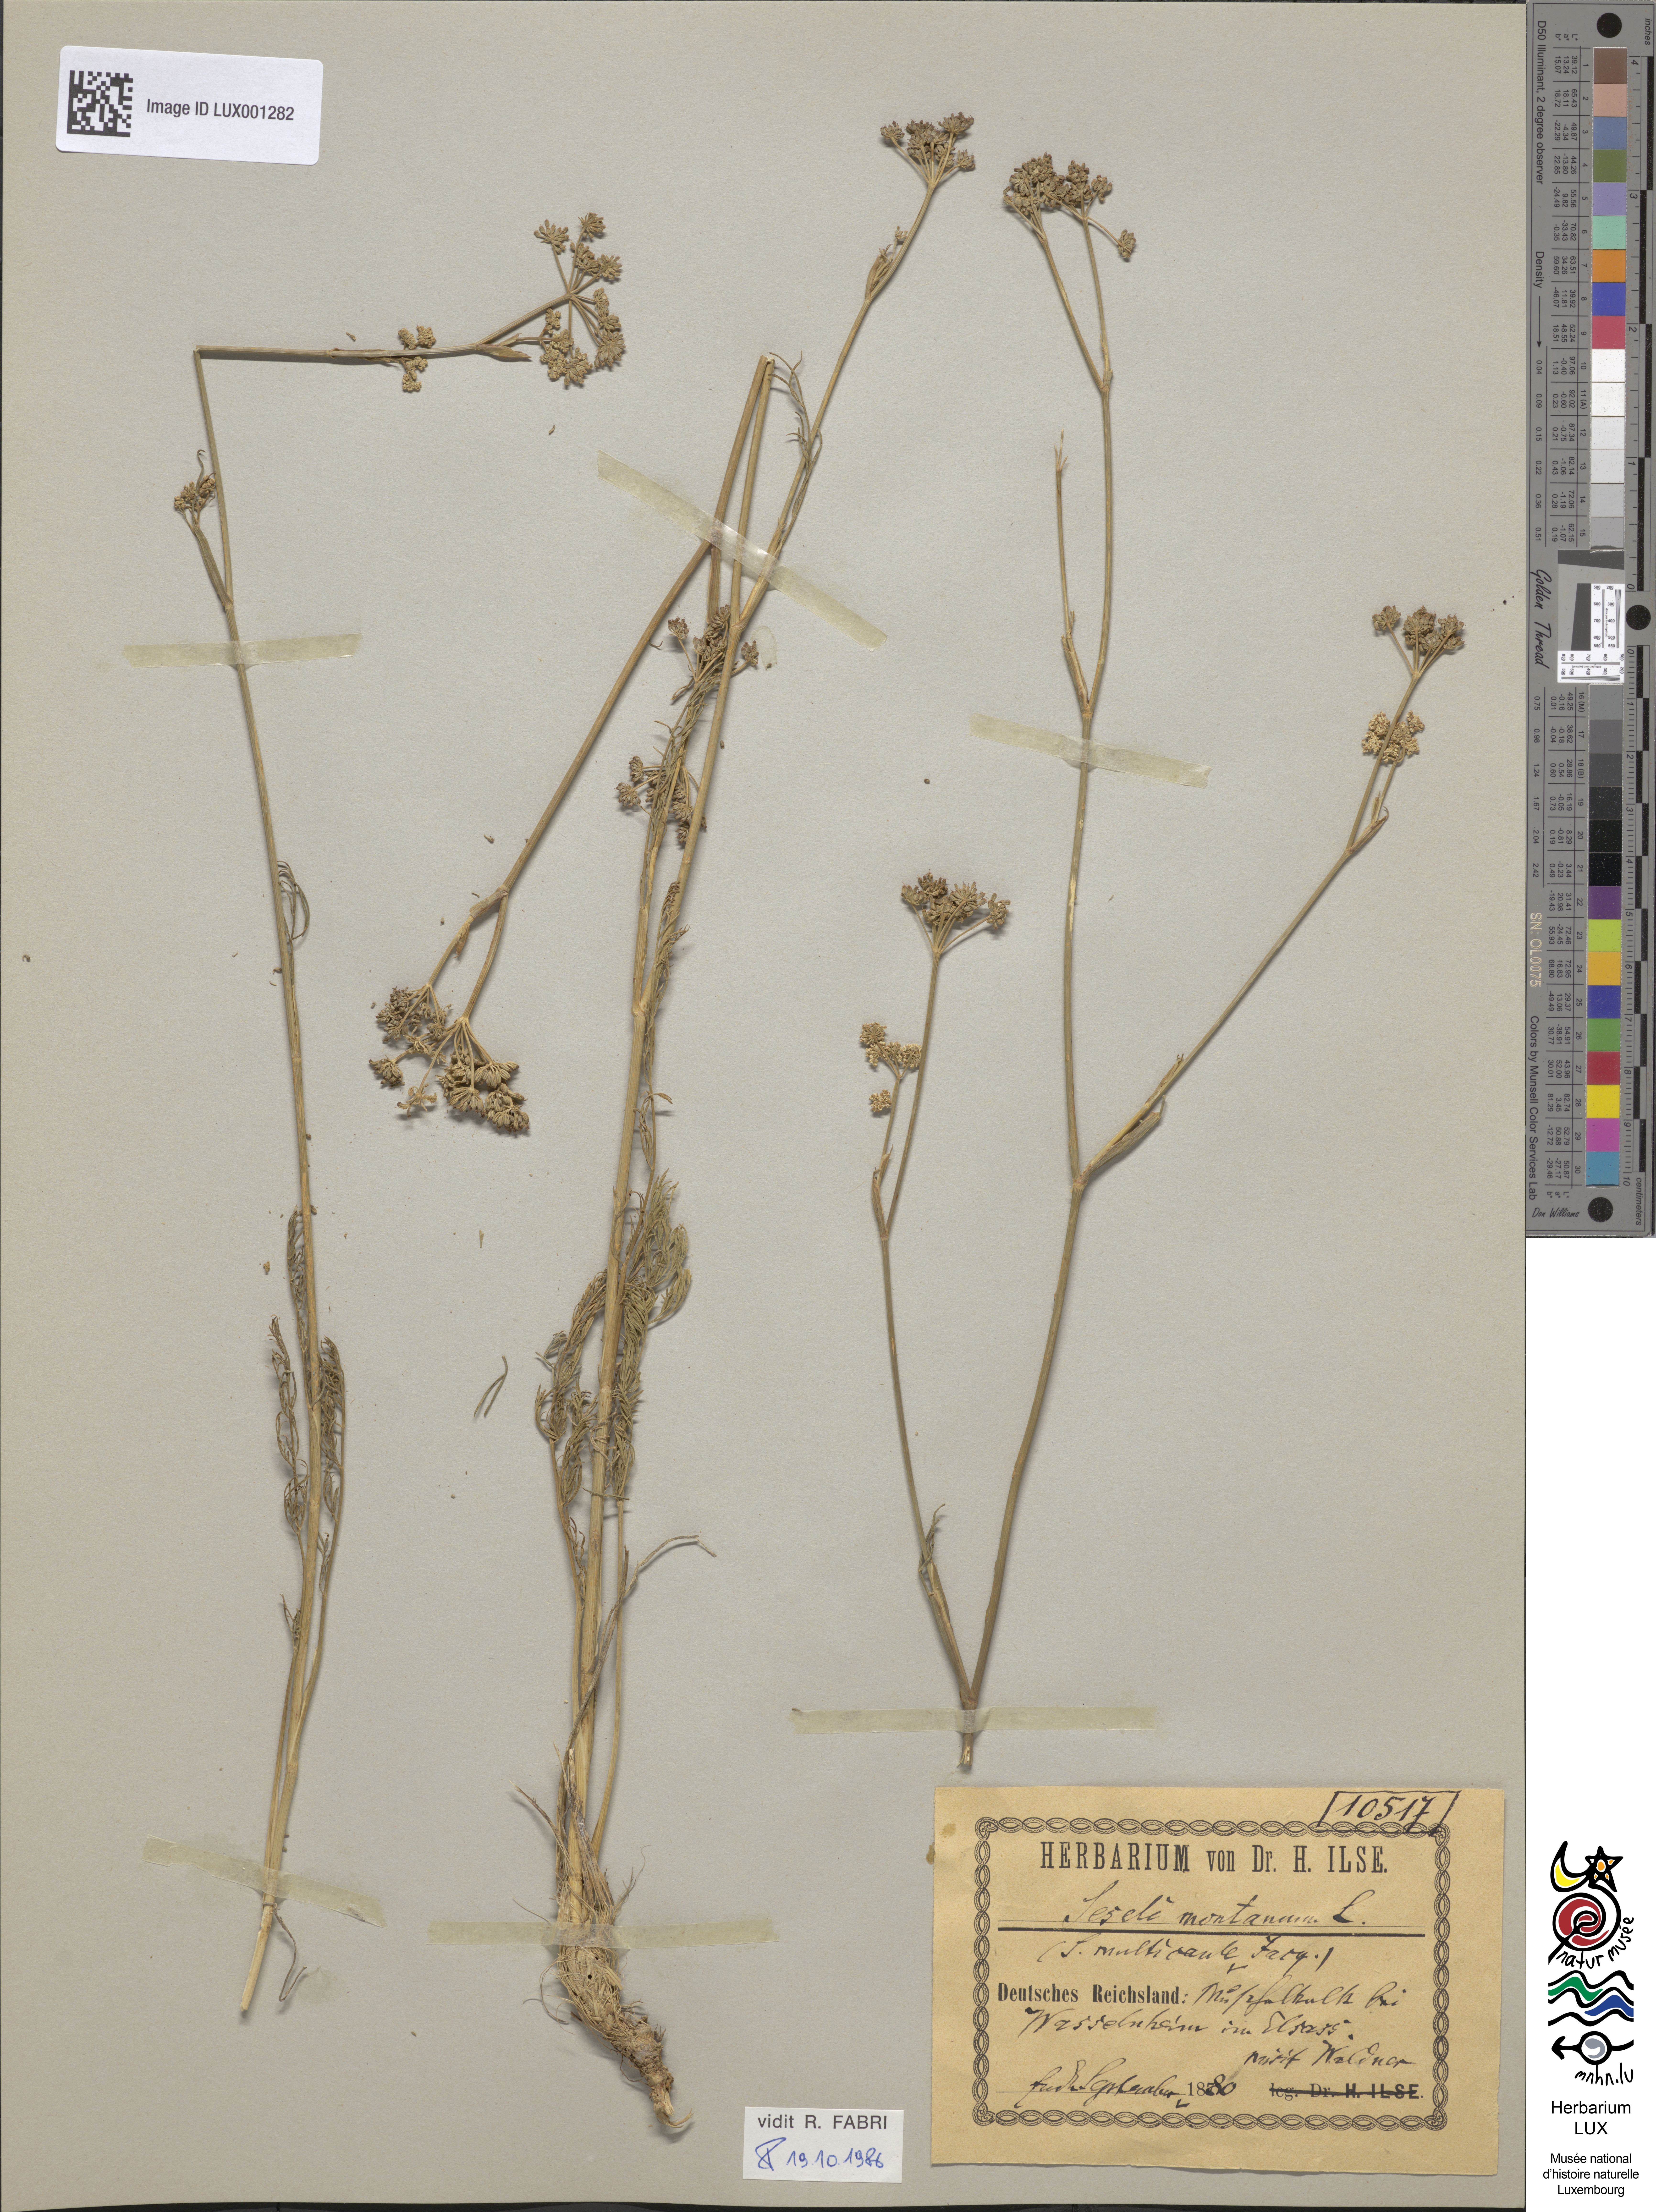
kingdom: Plantae
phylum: Tracheophyta
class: Magnoliopsida
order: Apiales
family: Apiaceae
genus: Seseli
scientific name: Seseli montanum
